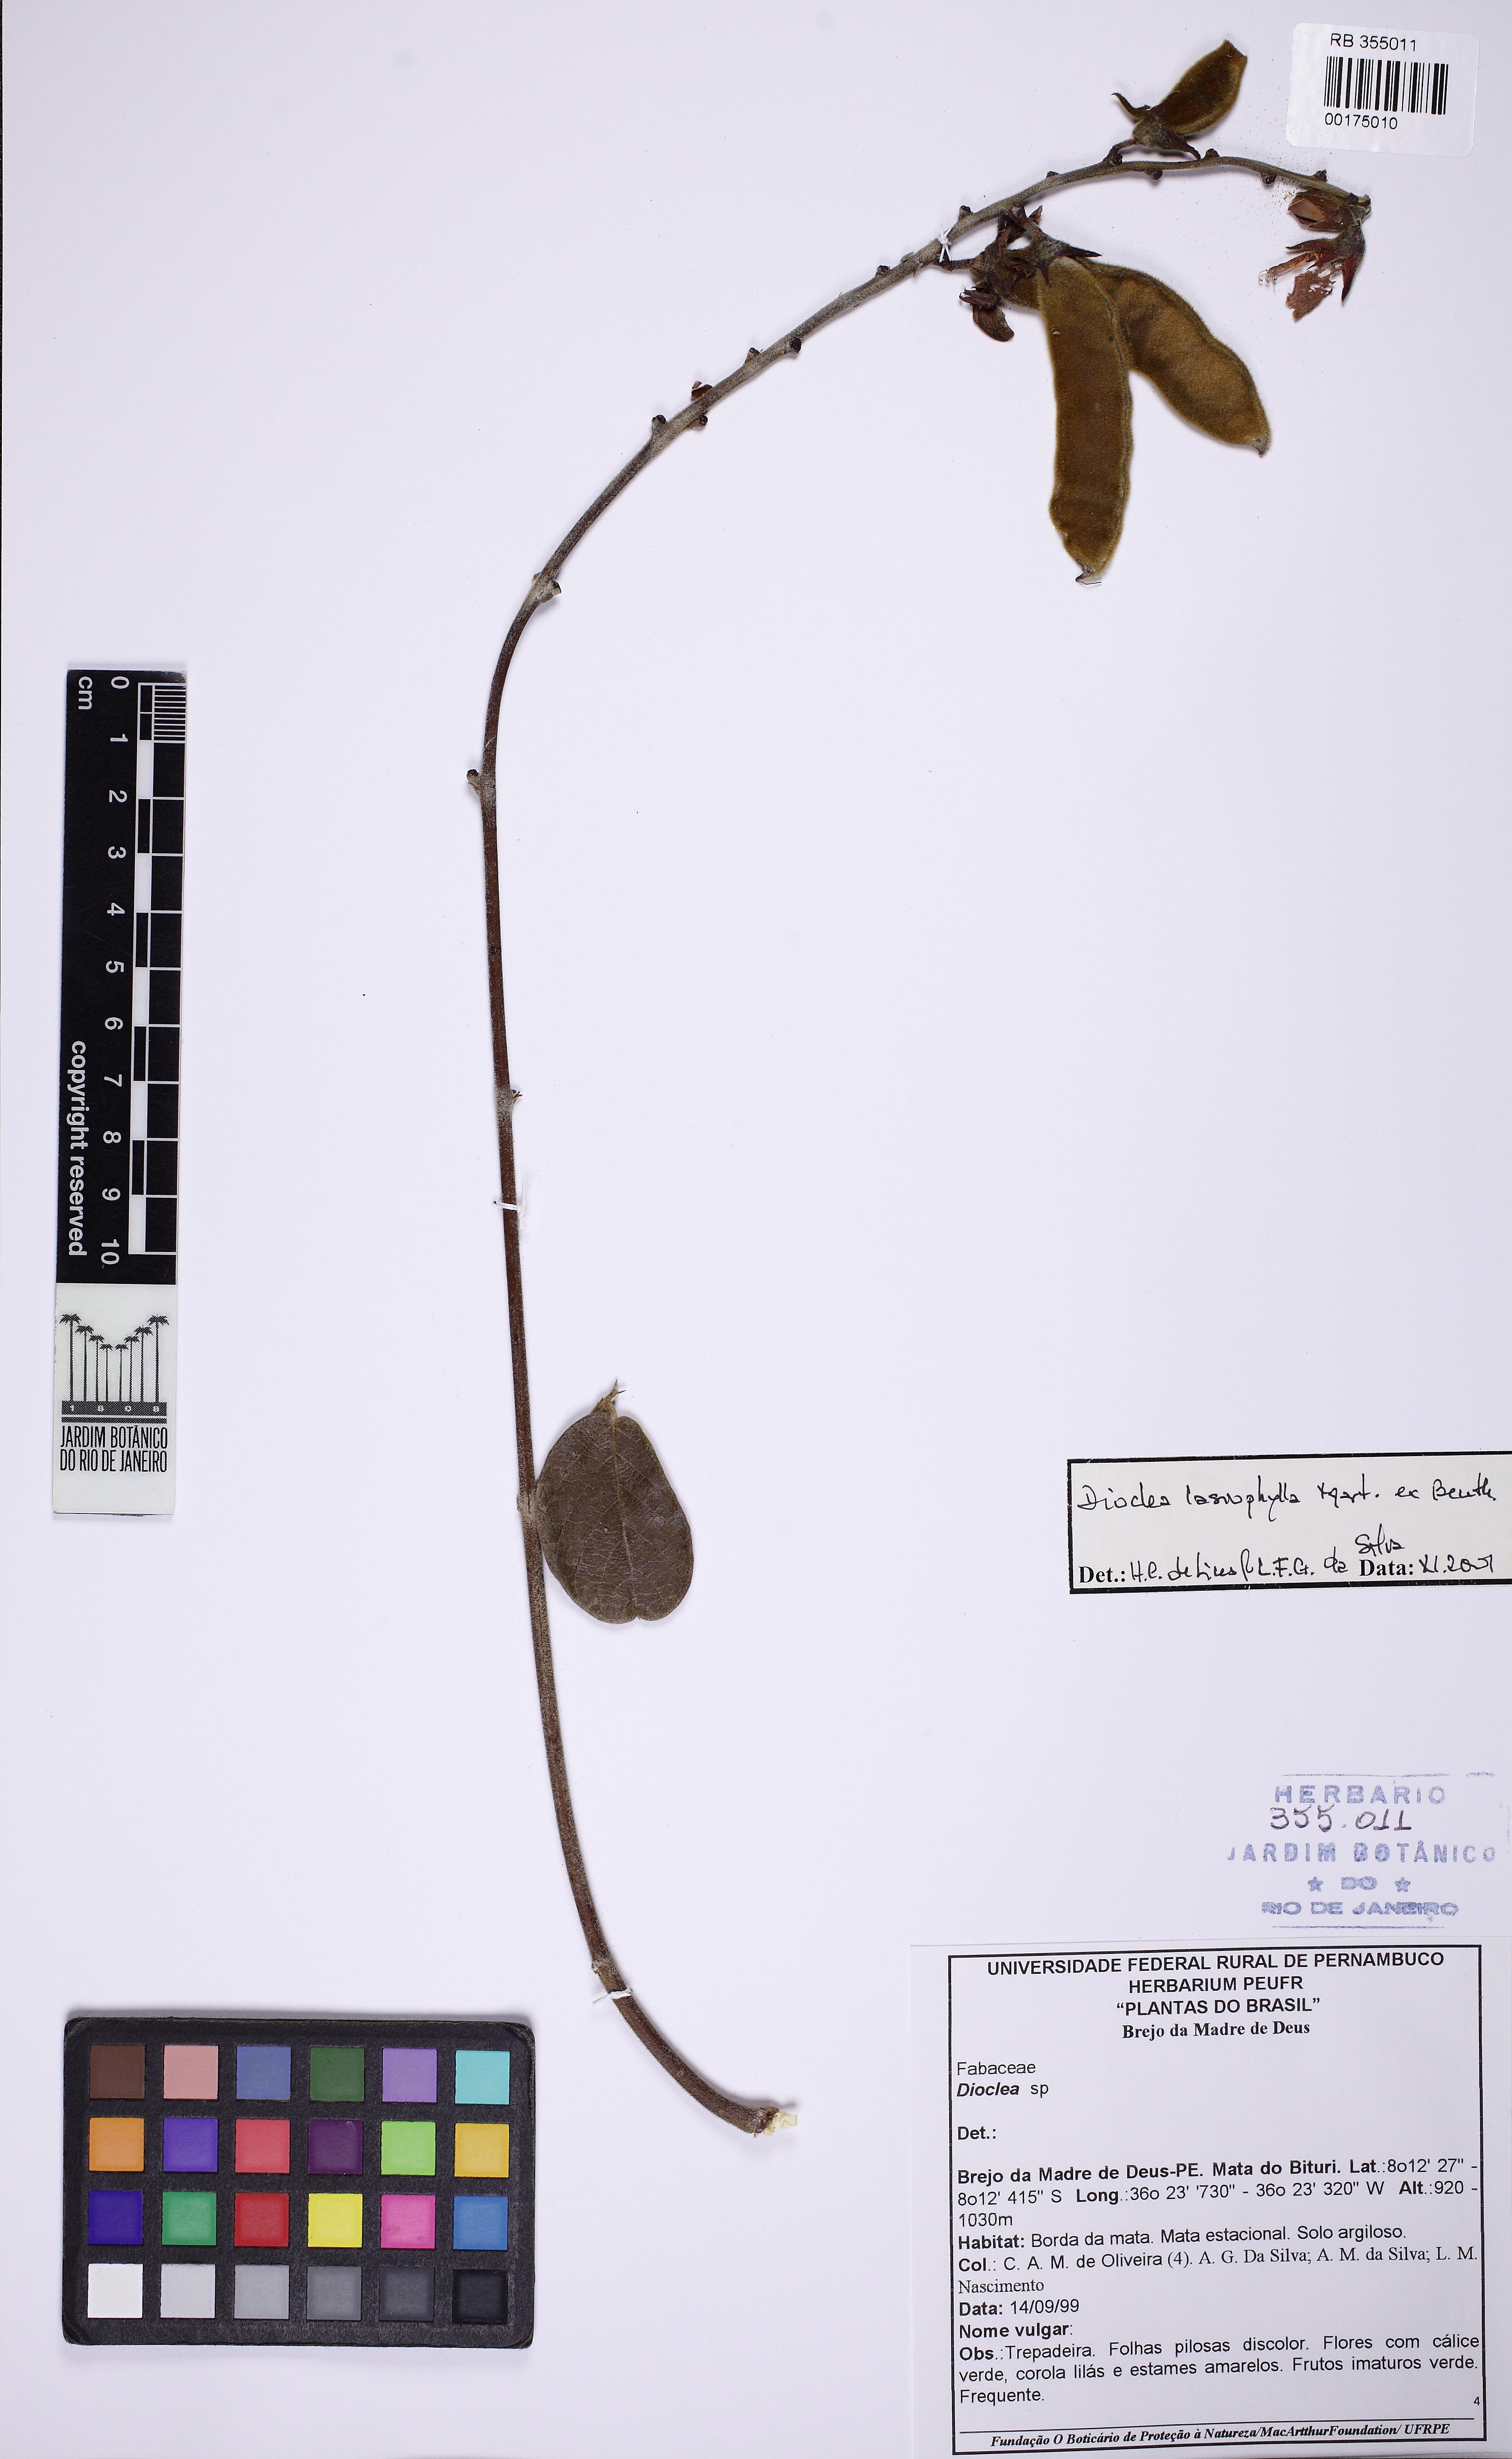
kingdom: Plantae
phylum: Tracheophyta
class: Magnoliopsida
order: Fabales
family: Fabaceae
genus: Dioclea
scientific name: Dioclea lasiophylla
